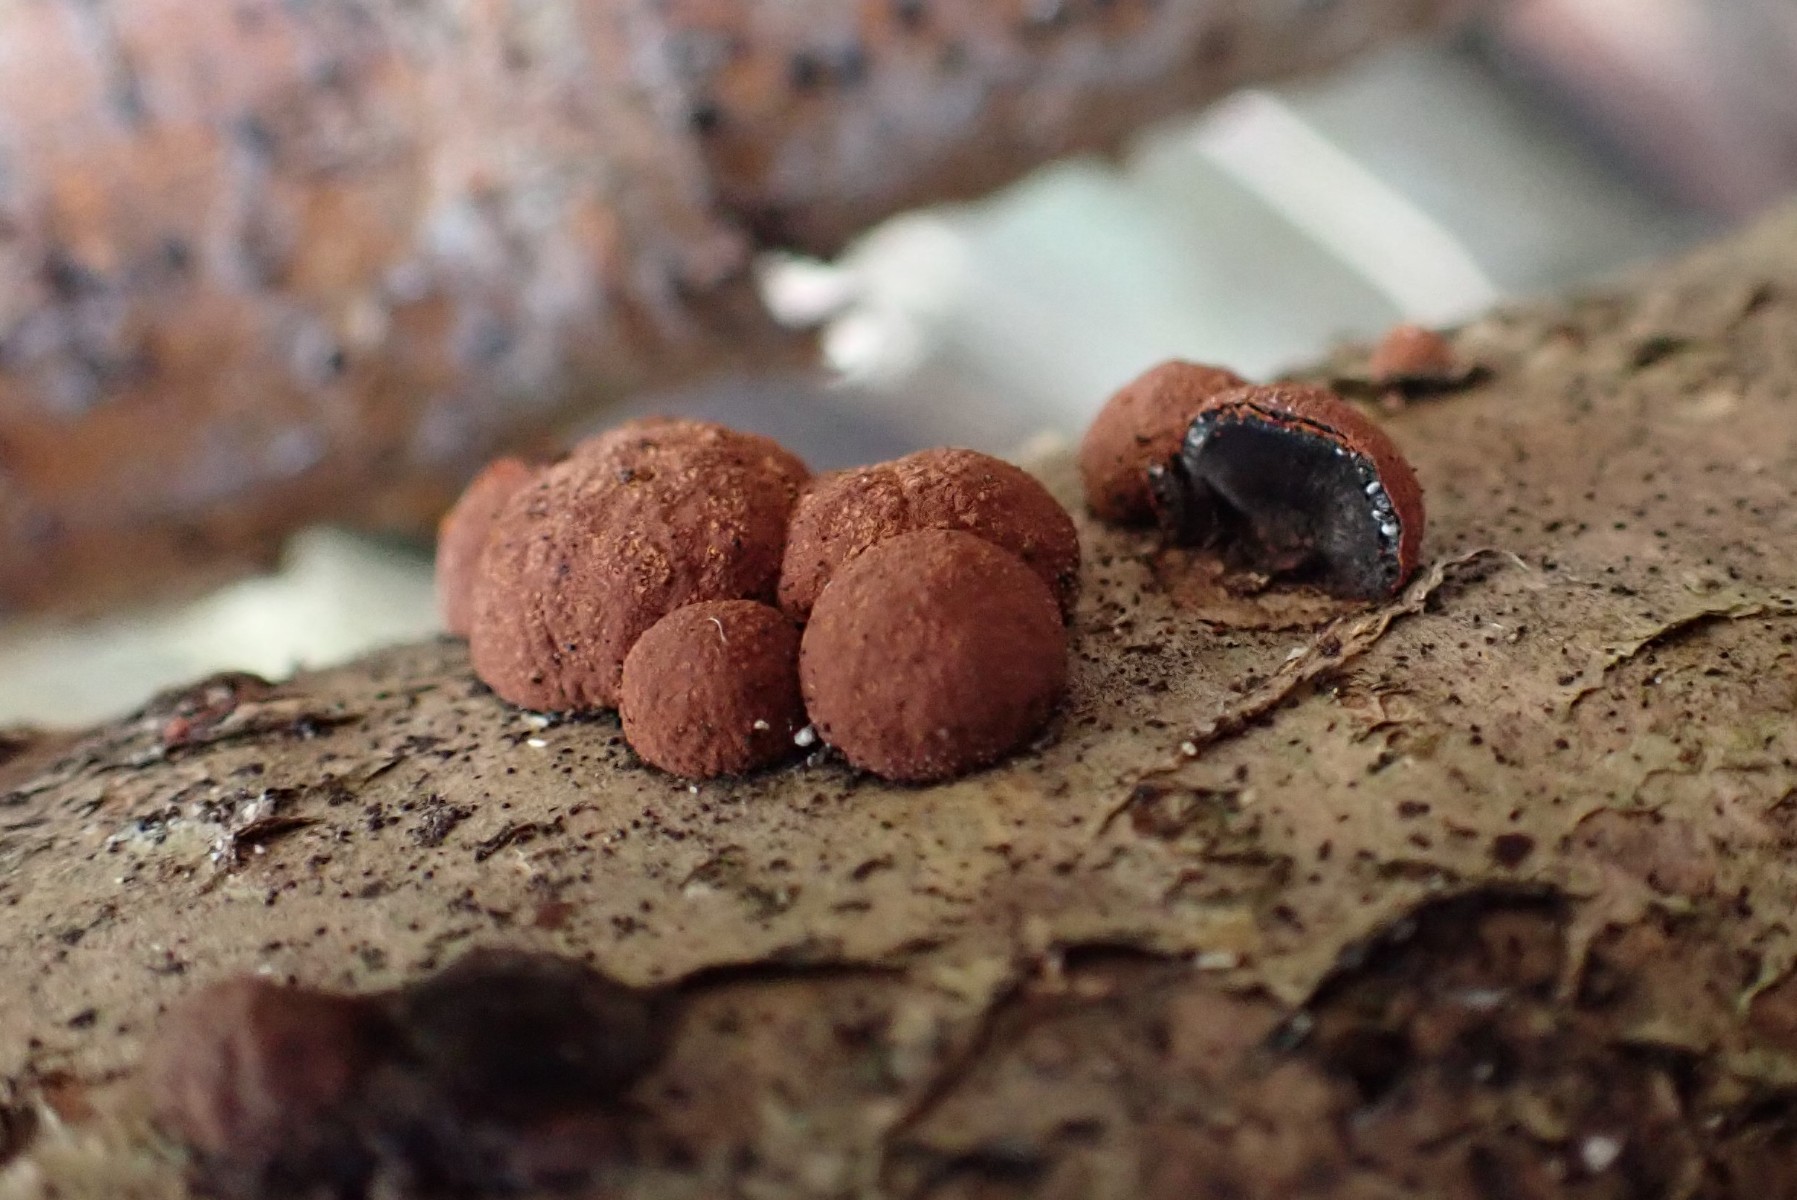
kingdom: Fungi
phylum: Ascomycota
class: Sordariomycetes
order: Xylariales
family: Hypoxylaceae
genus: Hypoxylon
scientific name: Hypoxylon howeanum
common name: halvkugleformet kulbær
